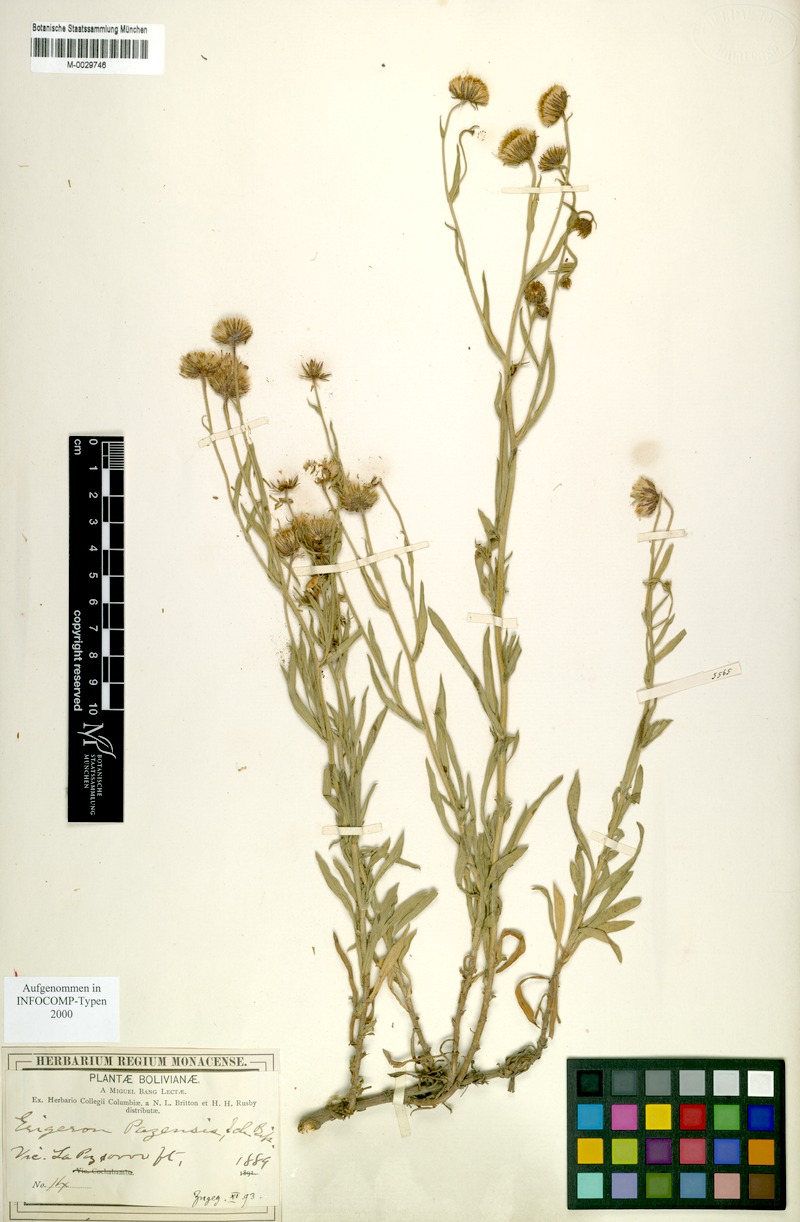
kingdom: Plantae
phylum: Tracheophyta
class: Magnoliopsida
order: Asterales
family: Asteraceae
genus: Erigeron
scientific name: Erigeron pazensis
